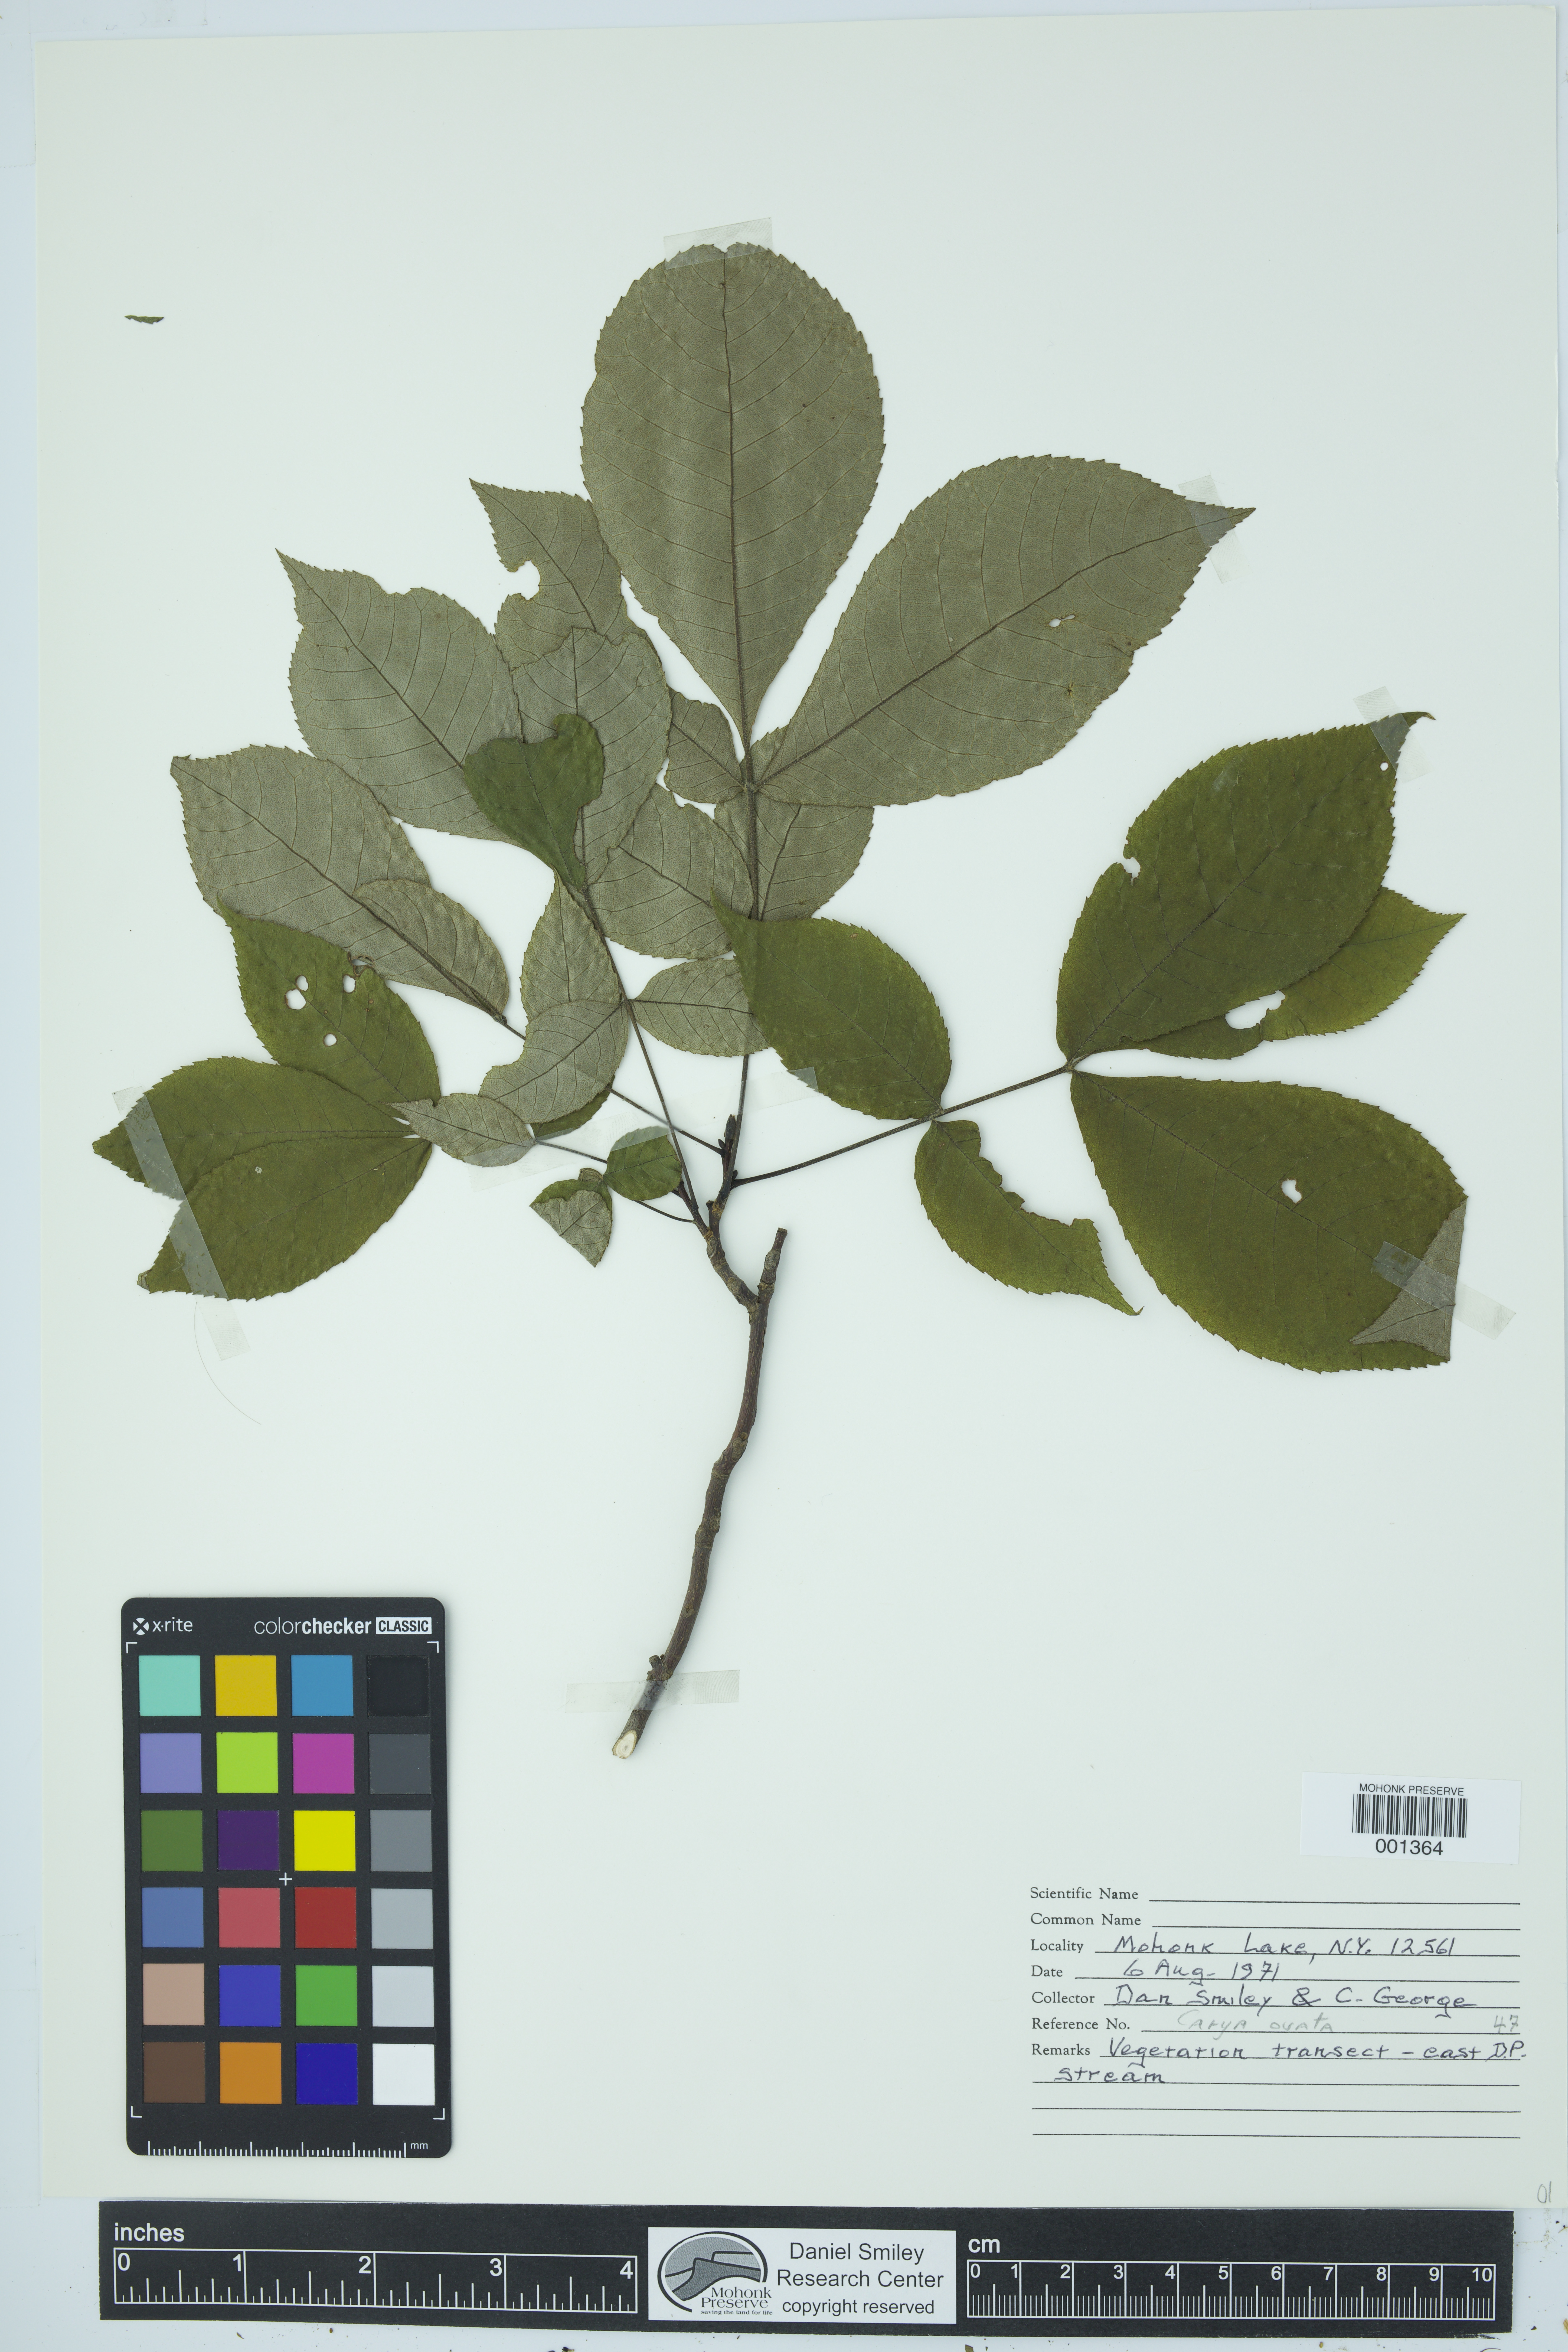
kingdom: Plantae
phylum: Tracheophyta
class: Magnoliopsida
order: Fagales
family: Juglandaceae
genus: Carya
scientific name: Carya ovata
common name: Shagbark hickory
